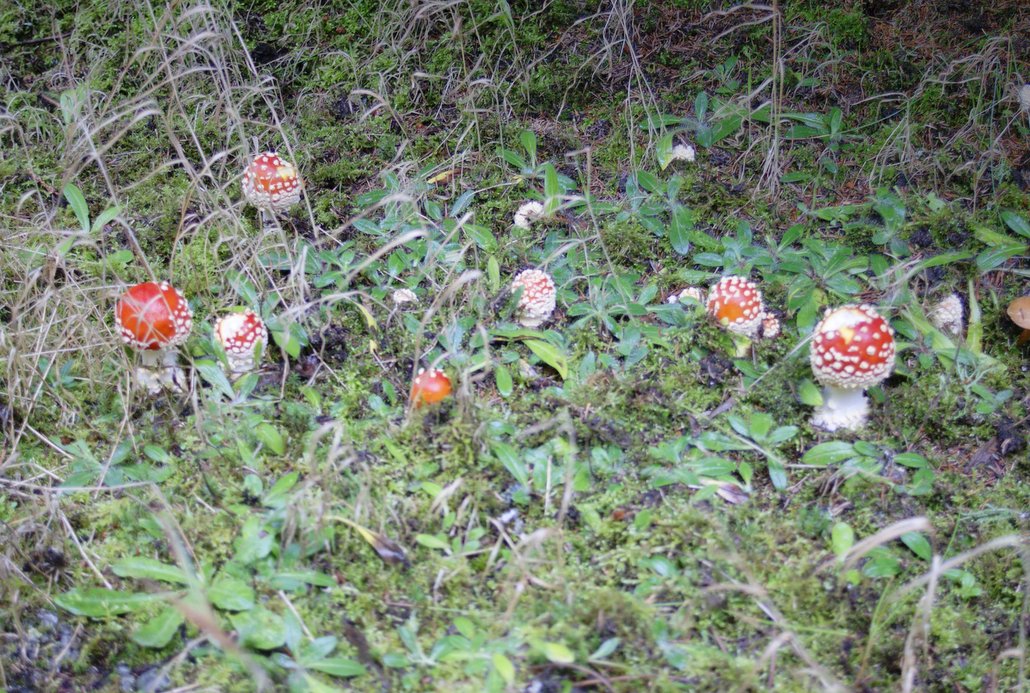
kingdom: Fungi
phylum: Basidiomycota
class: Agaricomycetes
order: Agaricales
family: Amanitaceae
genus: Amanita
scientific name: Amanita muscaria
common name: rød fluesvamp
